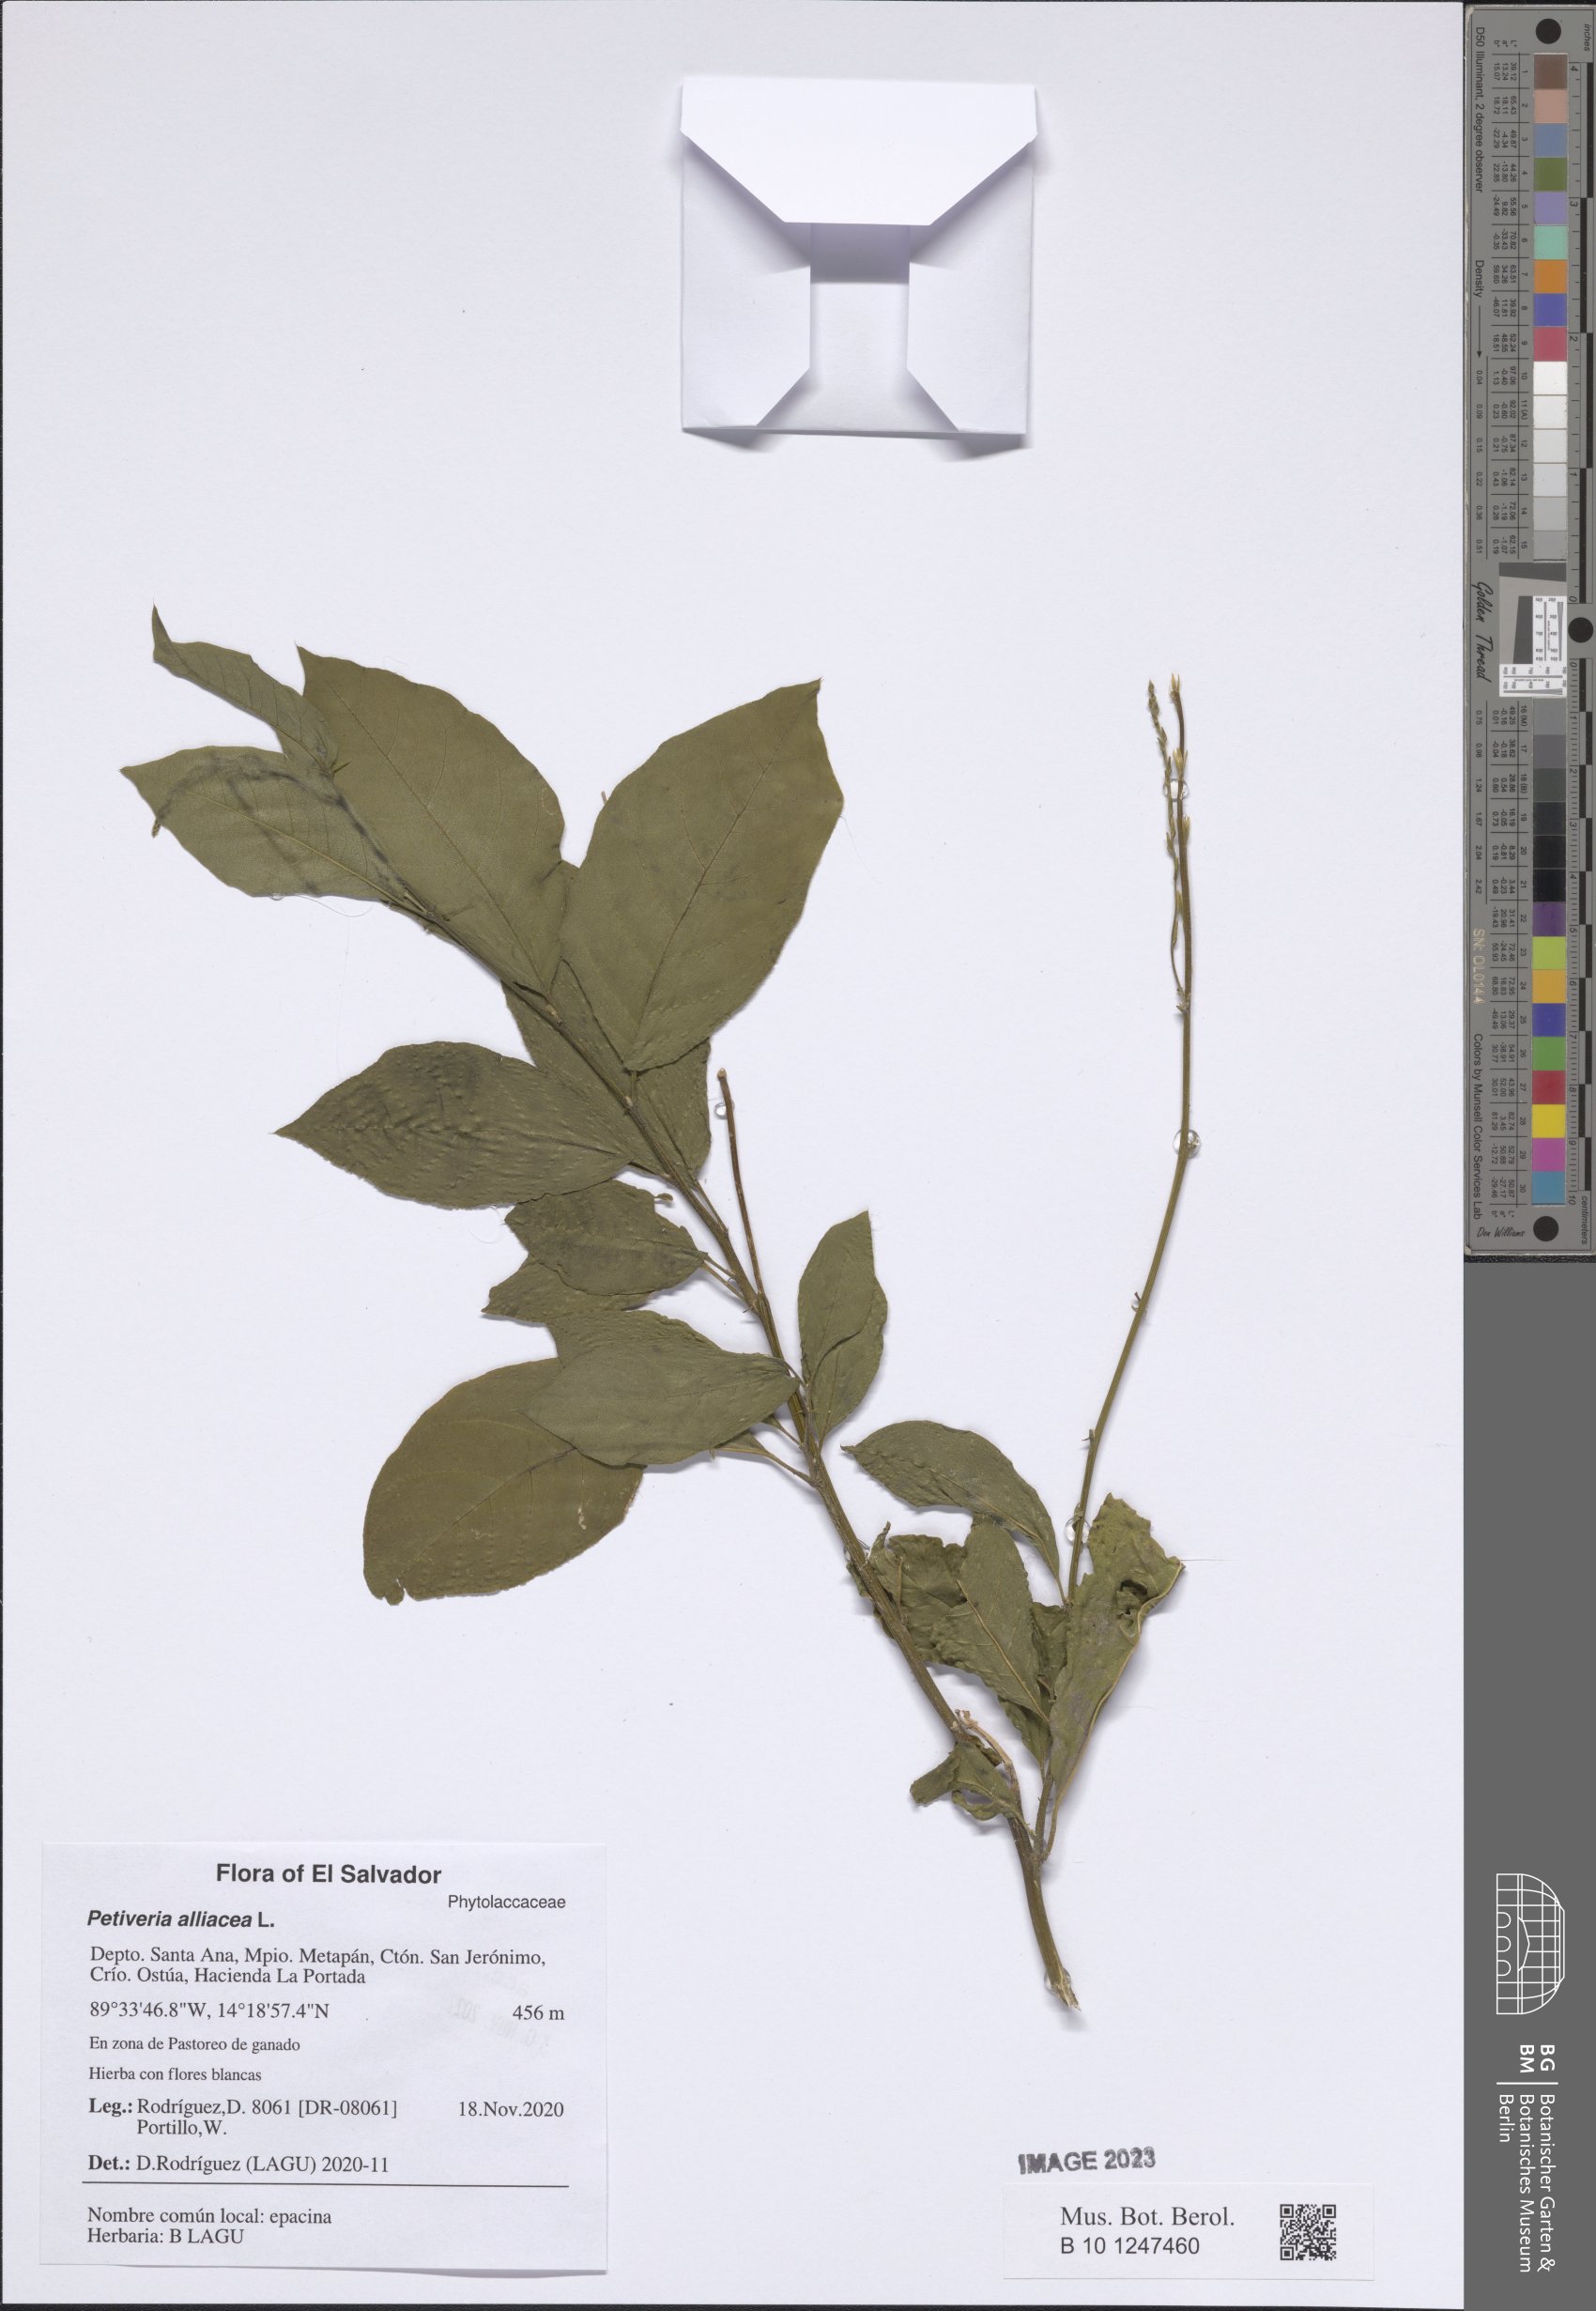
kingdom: Plantae
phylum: Tracheophyta
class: Magnoliopsida
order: Caryophyllales
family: Phytolaccaceae
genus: Petiveria
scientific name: Petiveria alliacea
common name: Garlicweed
